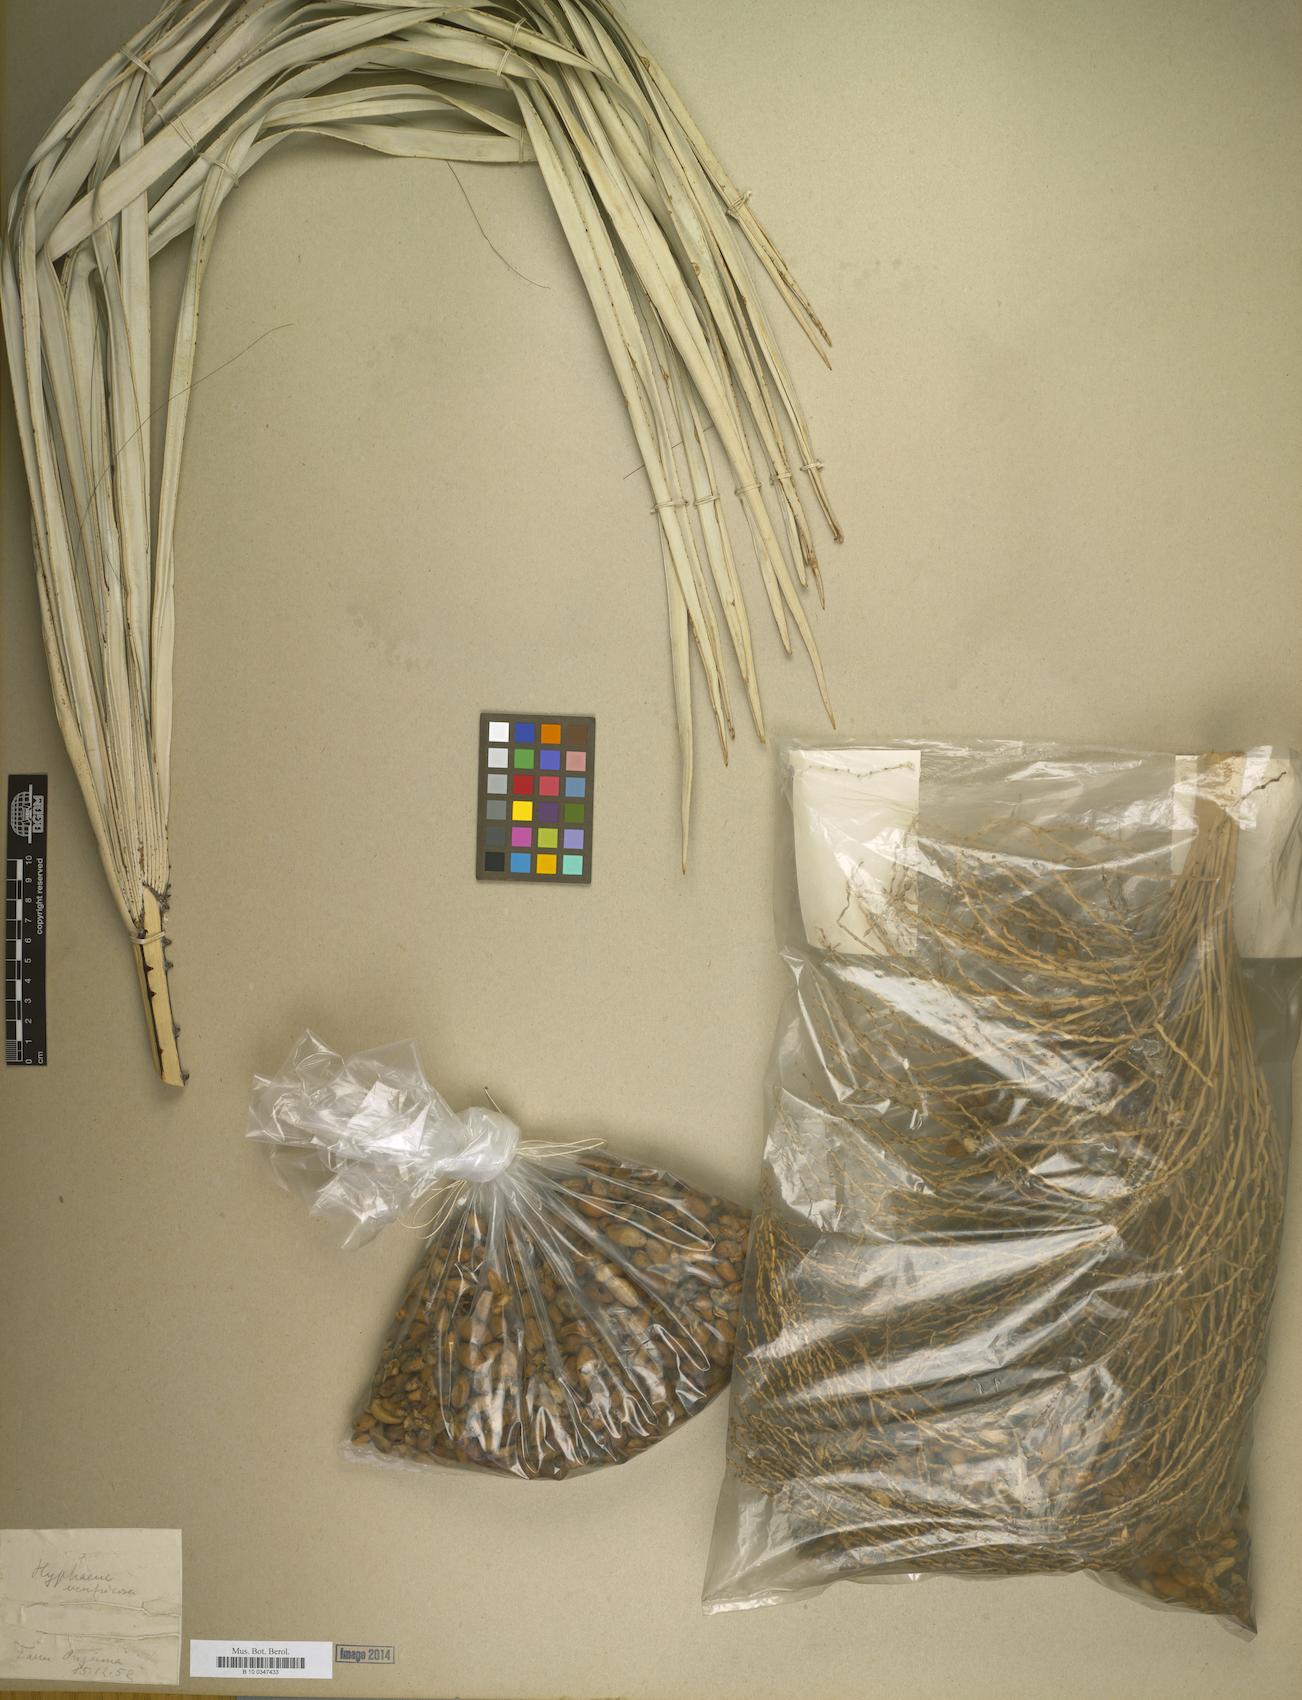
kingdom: Plantae
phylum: Tracheophyta
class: Liliopsida
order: Arecales
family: Arecaceae
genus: Hyphaene
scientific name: Hyphaene petersiana
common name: African ivory nut palm
